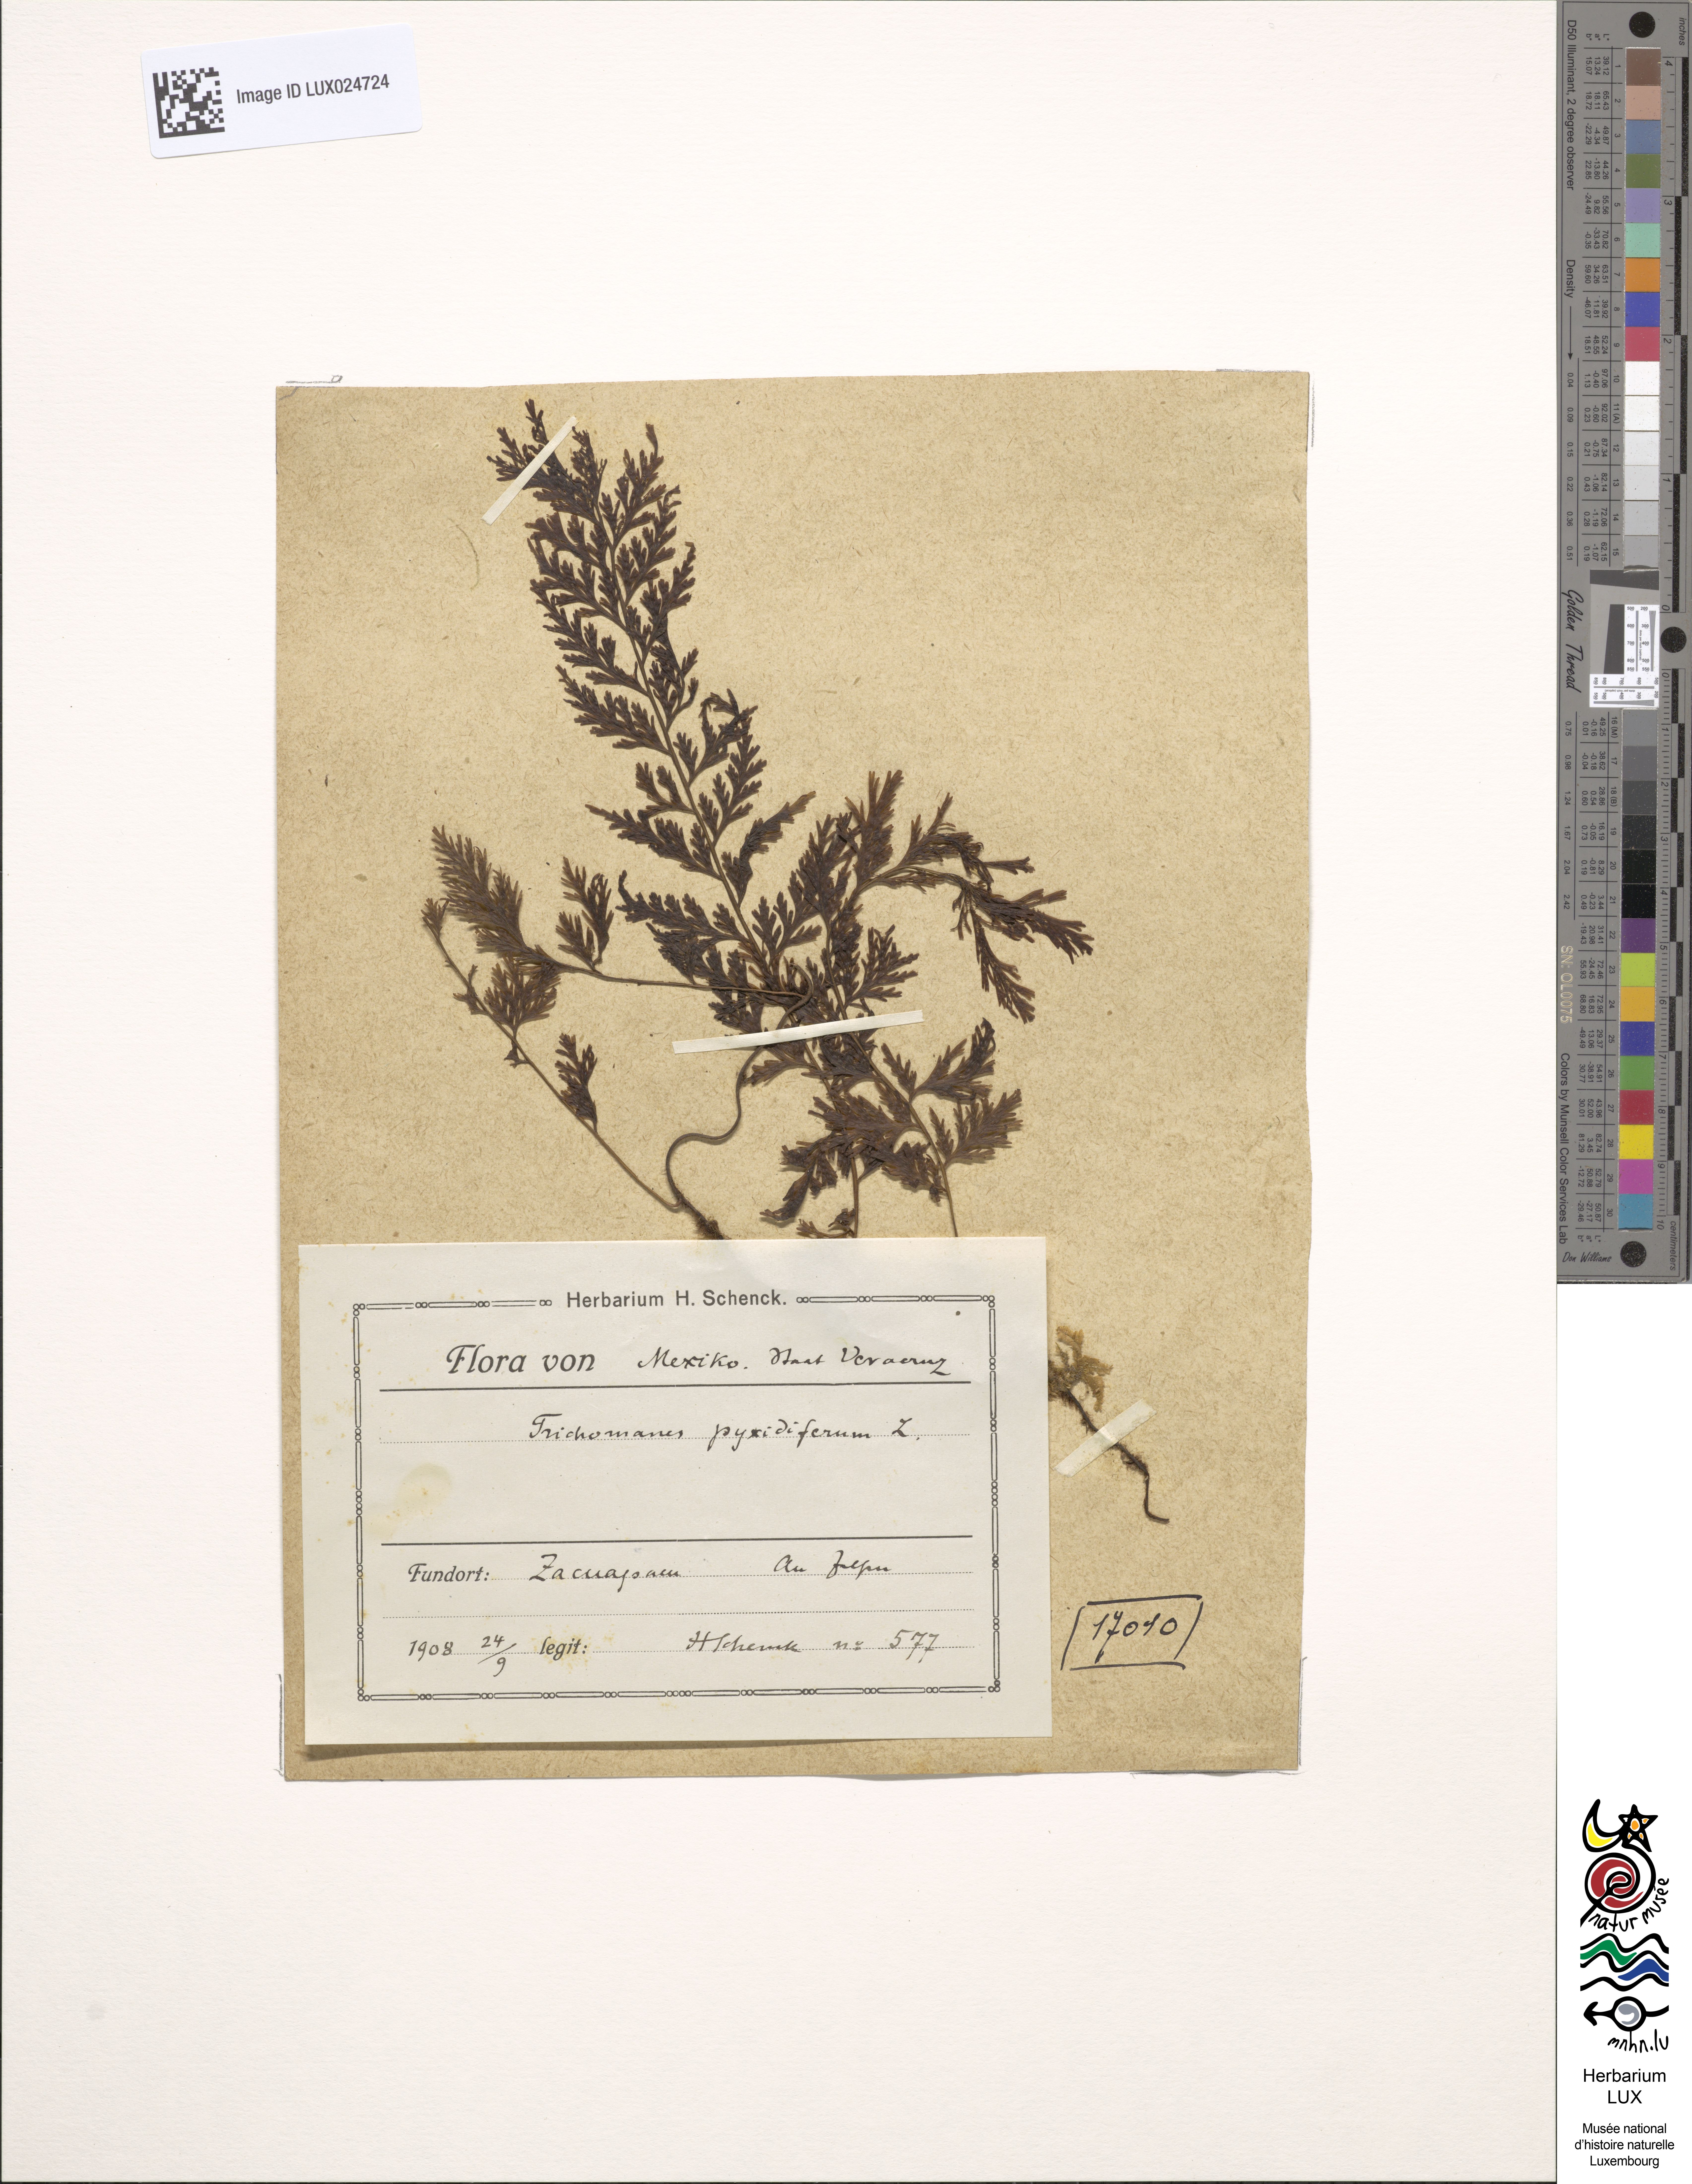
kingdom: Plantae
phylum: Tracheophyta
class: Polypodiopsida
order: Hymenophyllales
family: Hymenophyllaceae
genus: Polyphlebium
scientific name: Polyphlebium pyxidiferum
